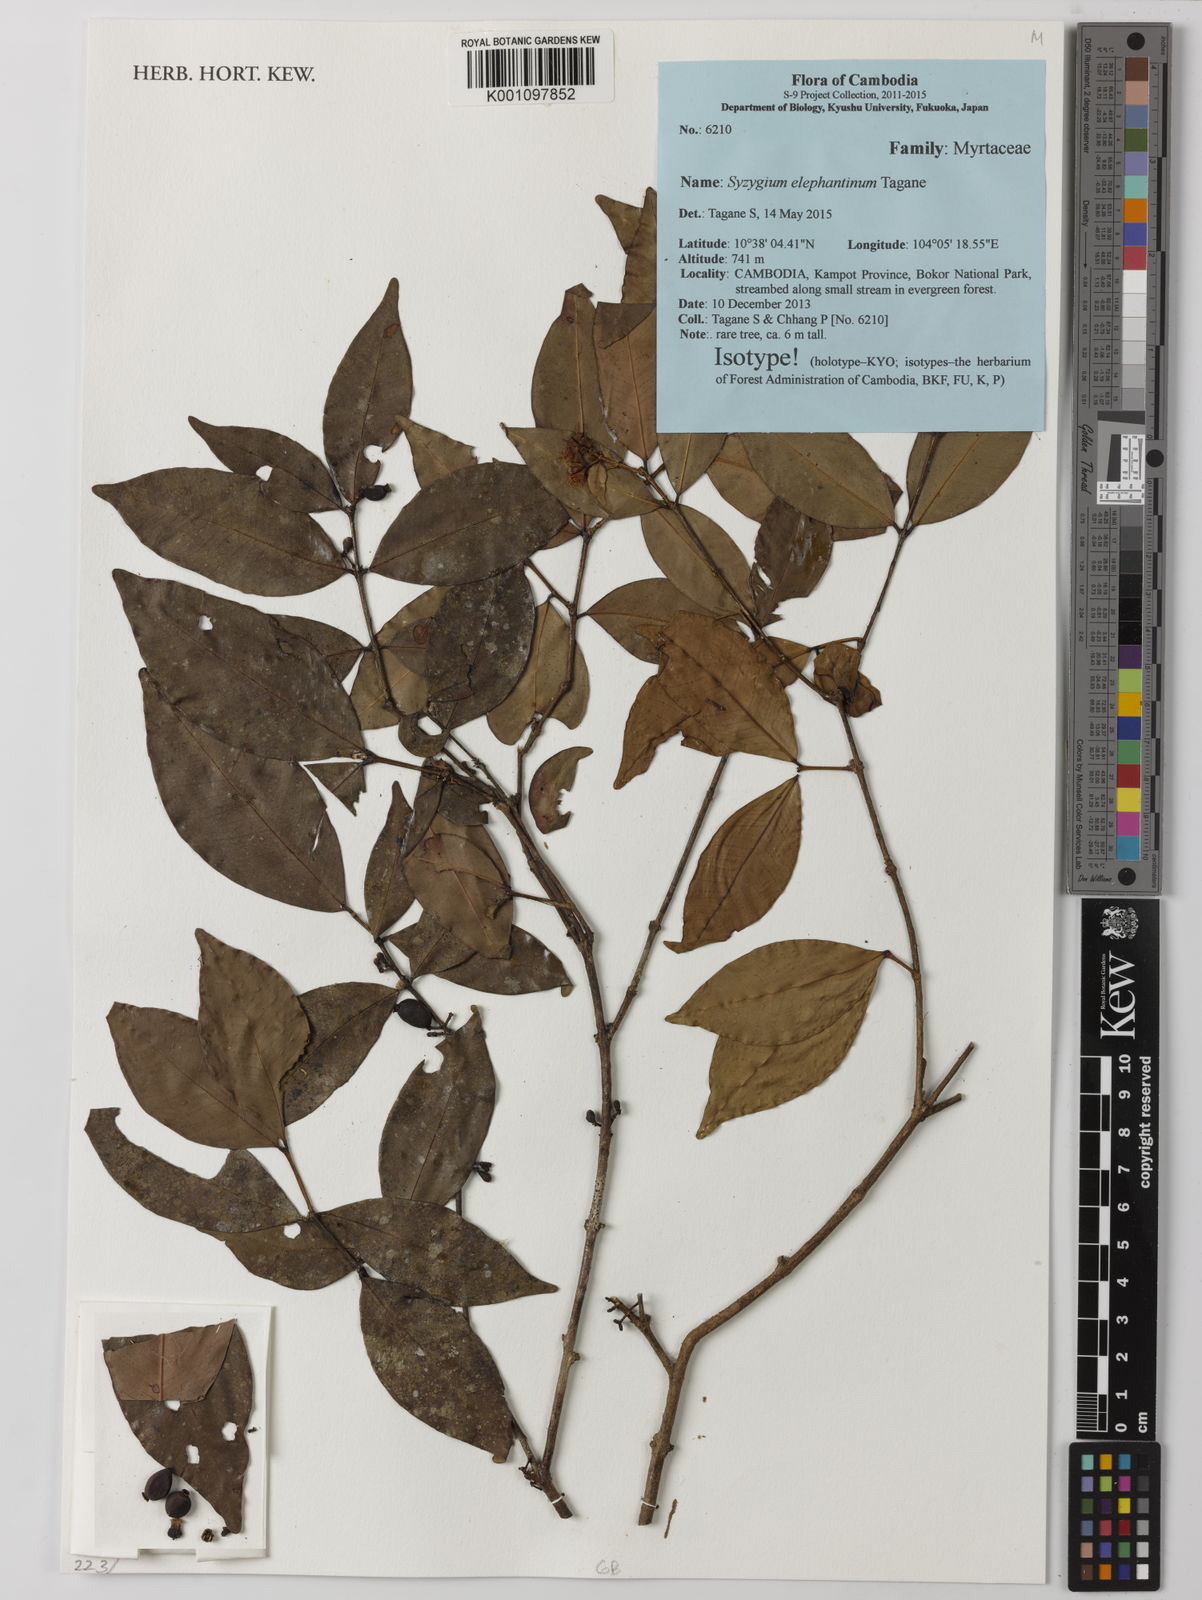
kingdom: Plantae
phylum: Tracheophyta
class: Magnoliopsida
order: Myrtales
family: Myrtaceae
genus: Syzygium
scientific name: Syzygium elephantinum
